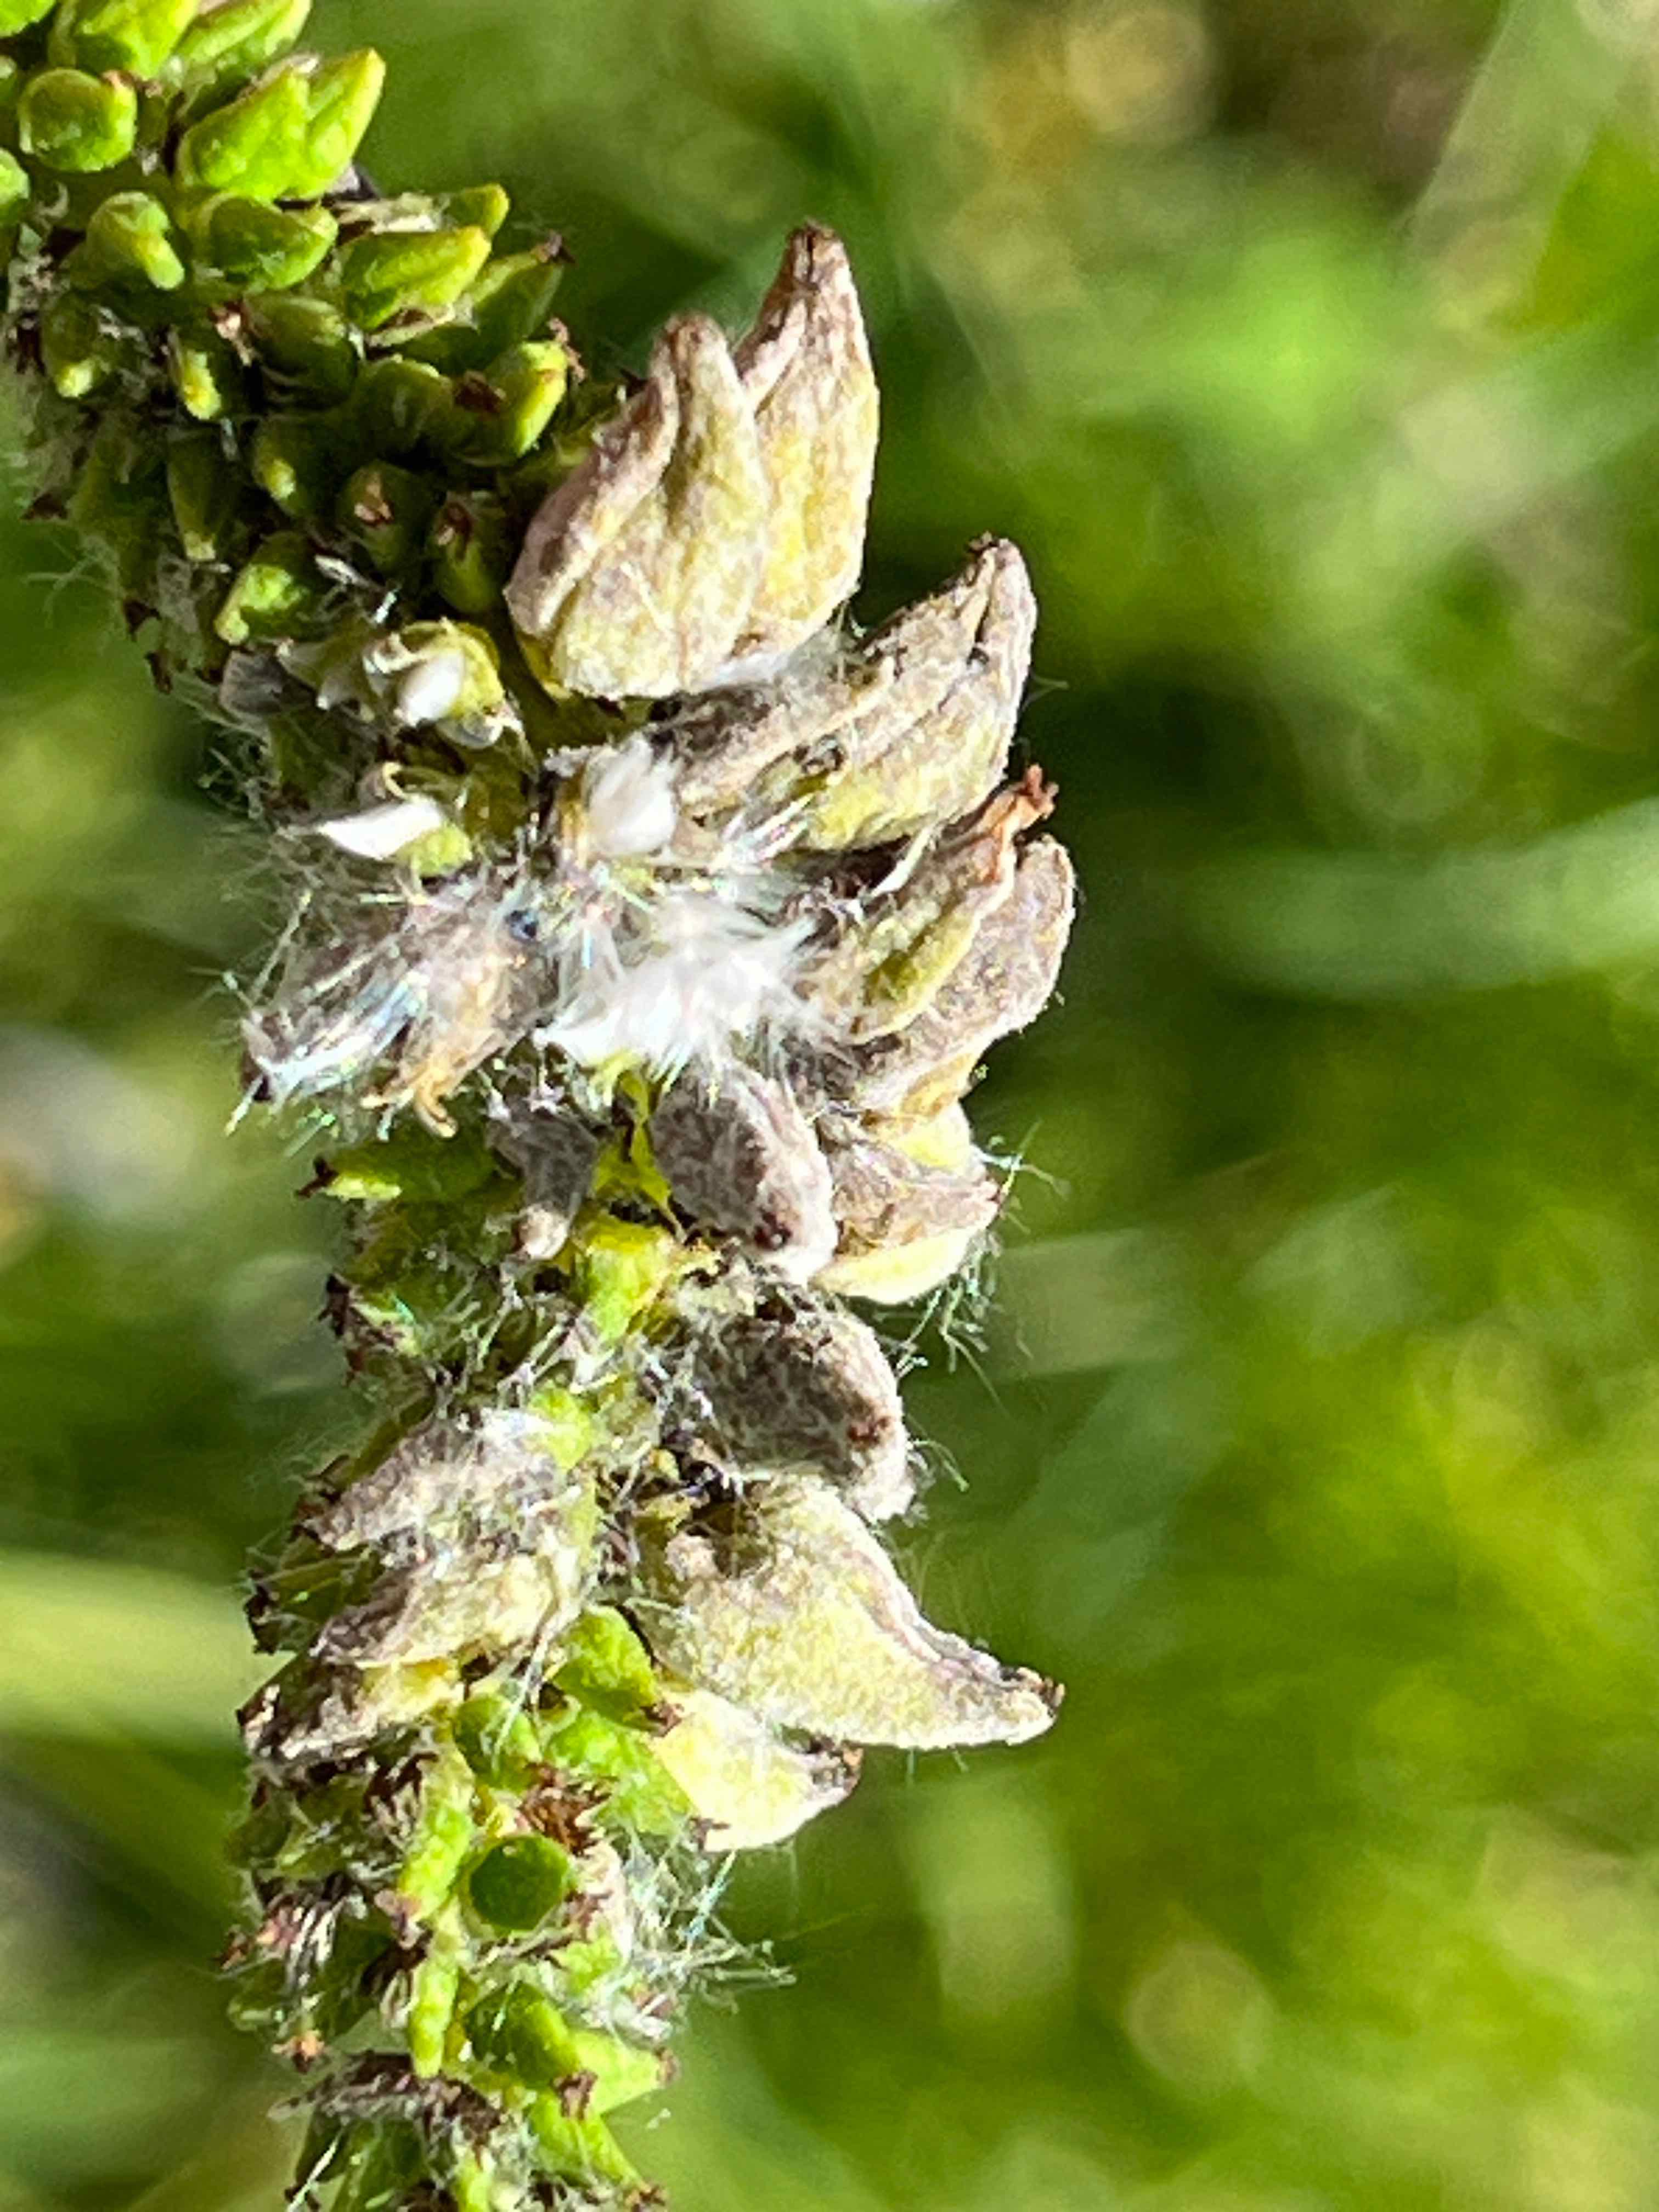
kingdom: Fungi
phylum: Ascomycota
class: Taphrinomycetes
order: Taphrinales
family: Taphrinaceae
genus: Taphrina
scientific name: Taphrina johansonii
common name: Aspen tongue
